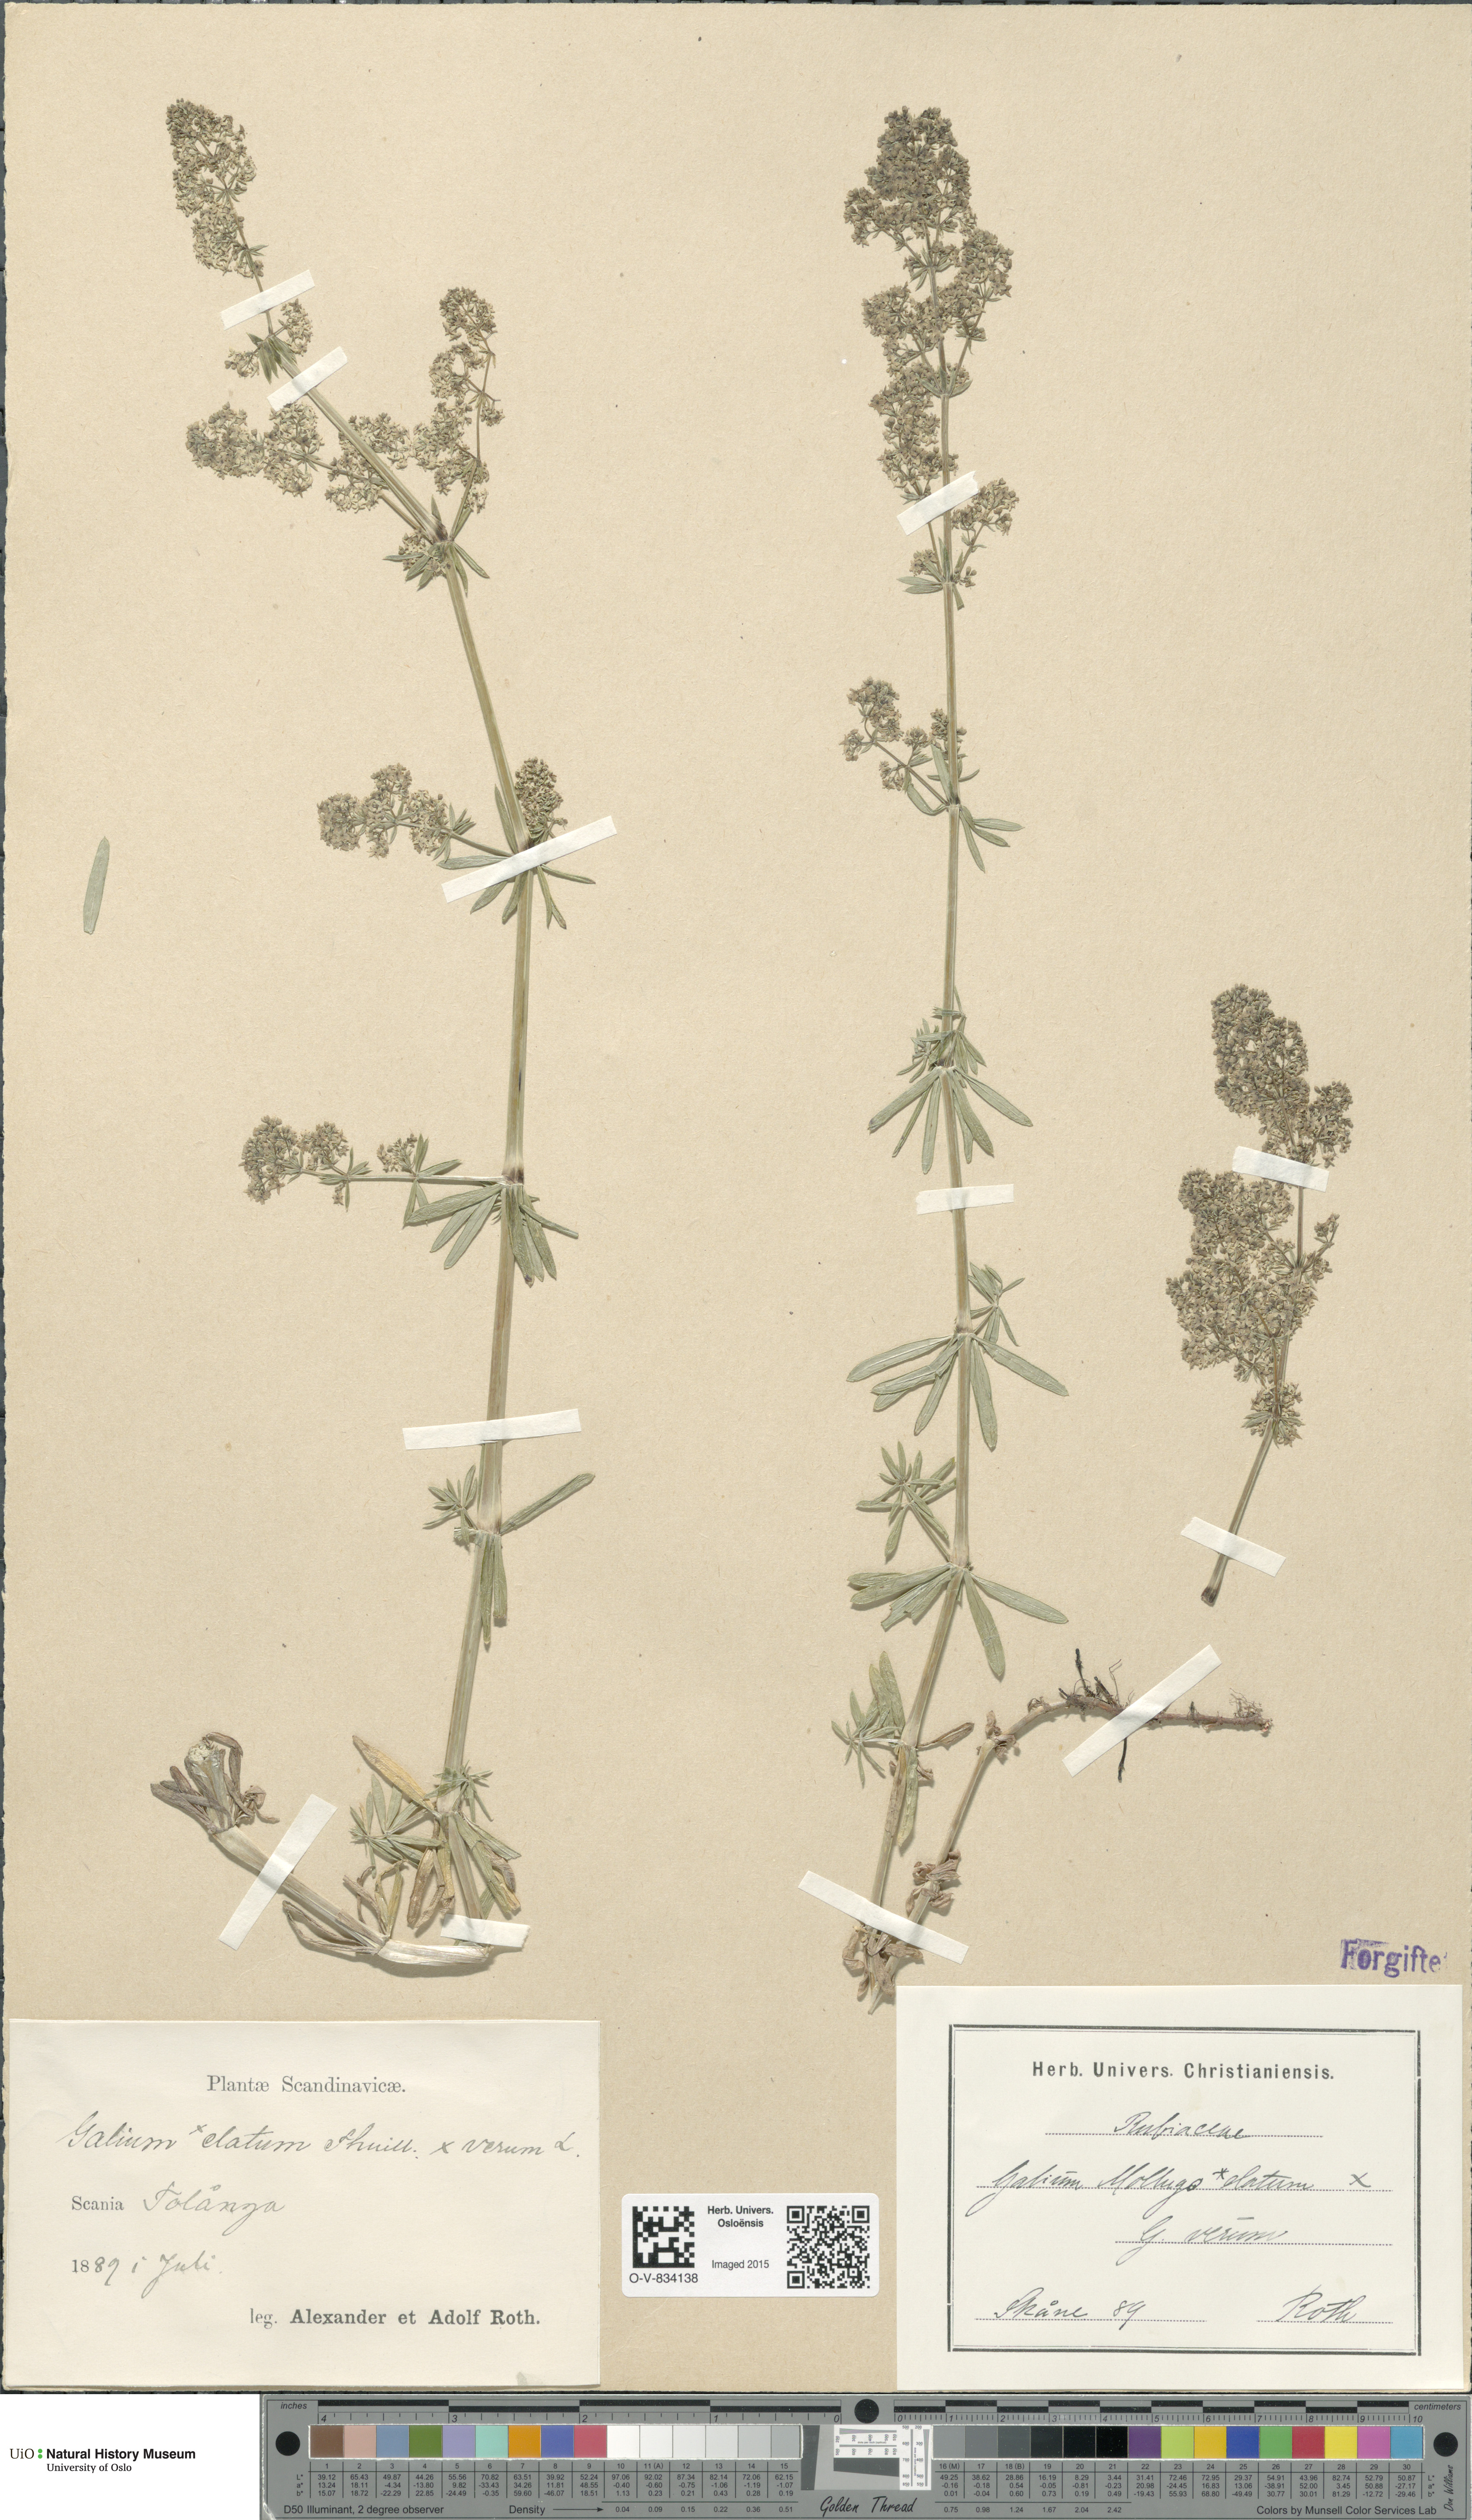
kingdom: Plantae
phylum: Tracheophyta
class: Magnoliopsida
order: Gentianales
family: Rubiaceae
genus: Galium
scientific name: Galium
